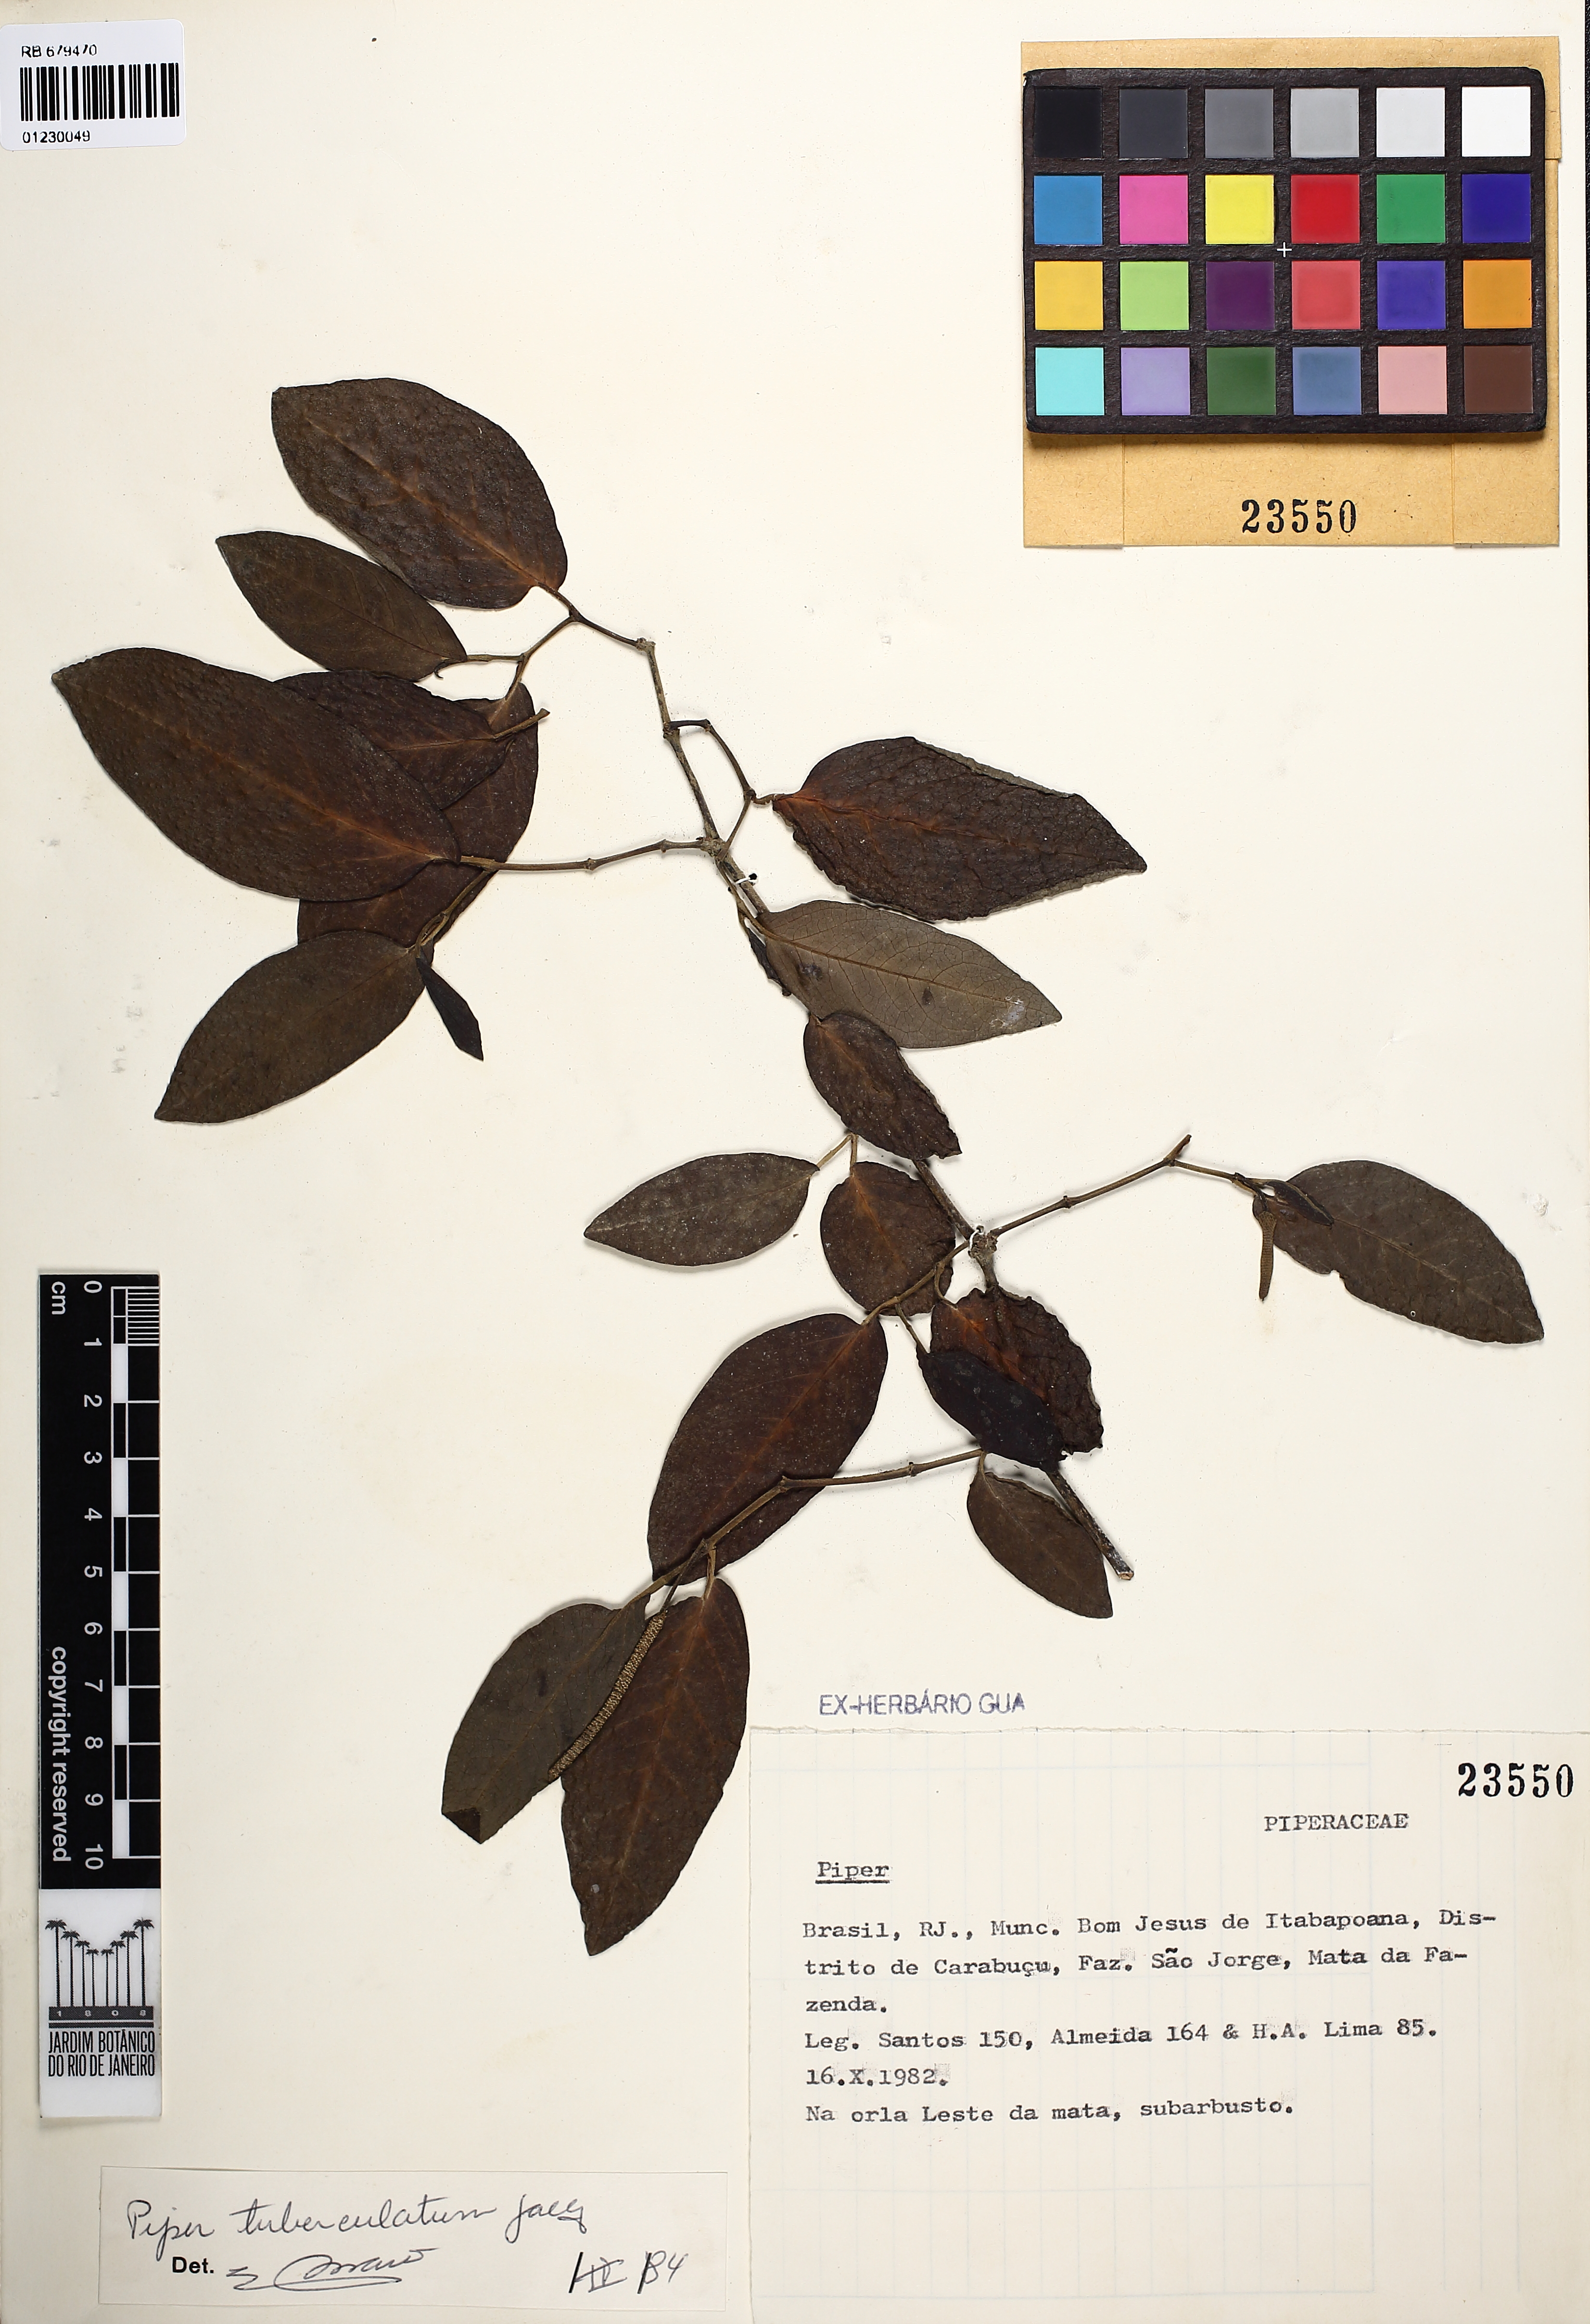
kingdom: Plantae
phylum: Tracheophyta
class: Magnoliopsida
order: Piperales
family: Piperaceae
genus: Piper
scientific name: Piper tuberculatum
